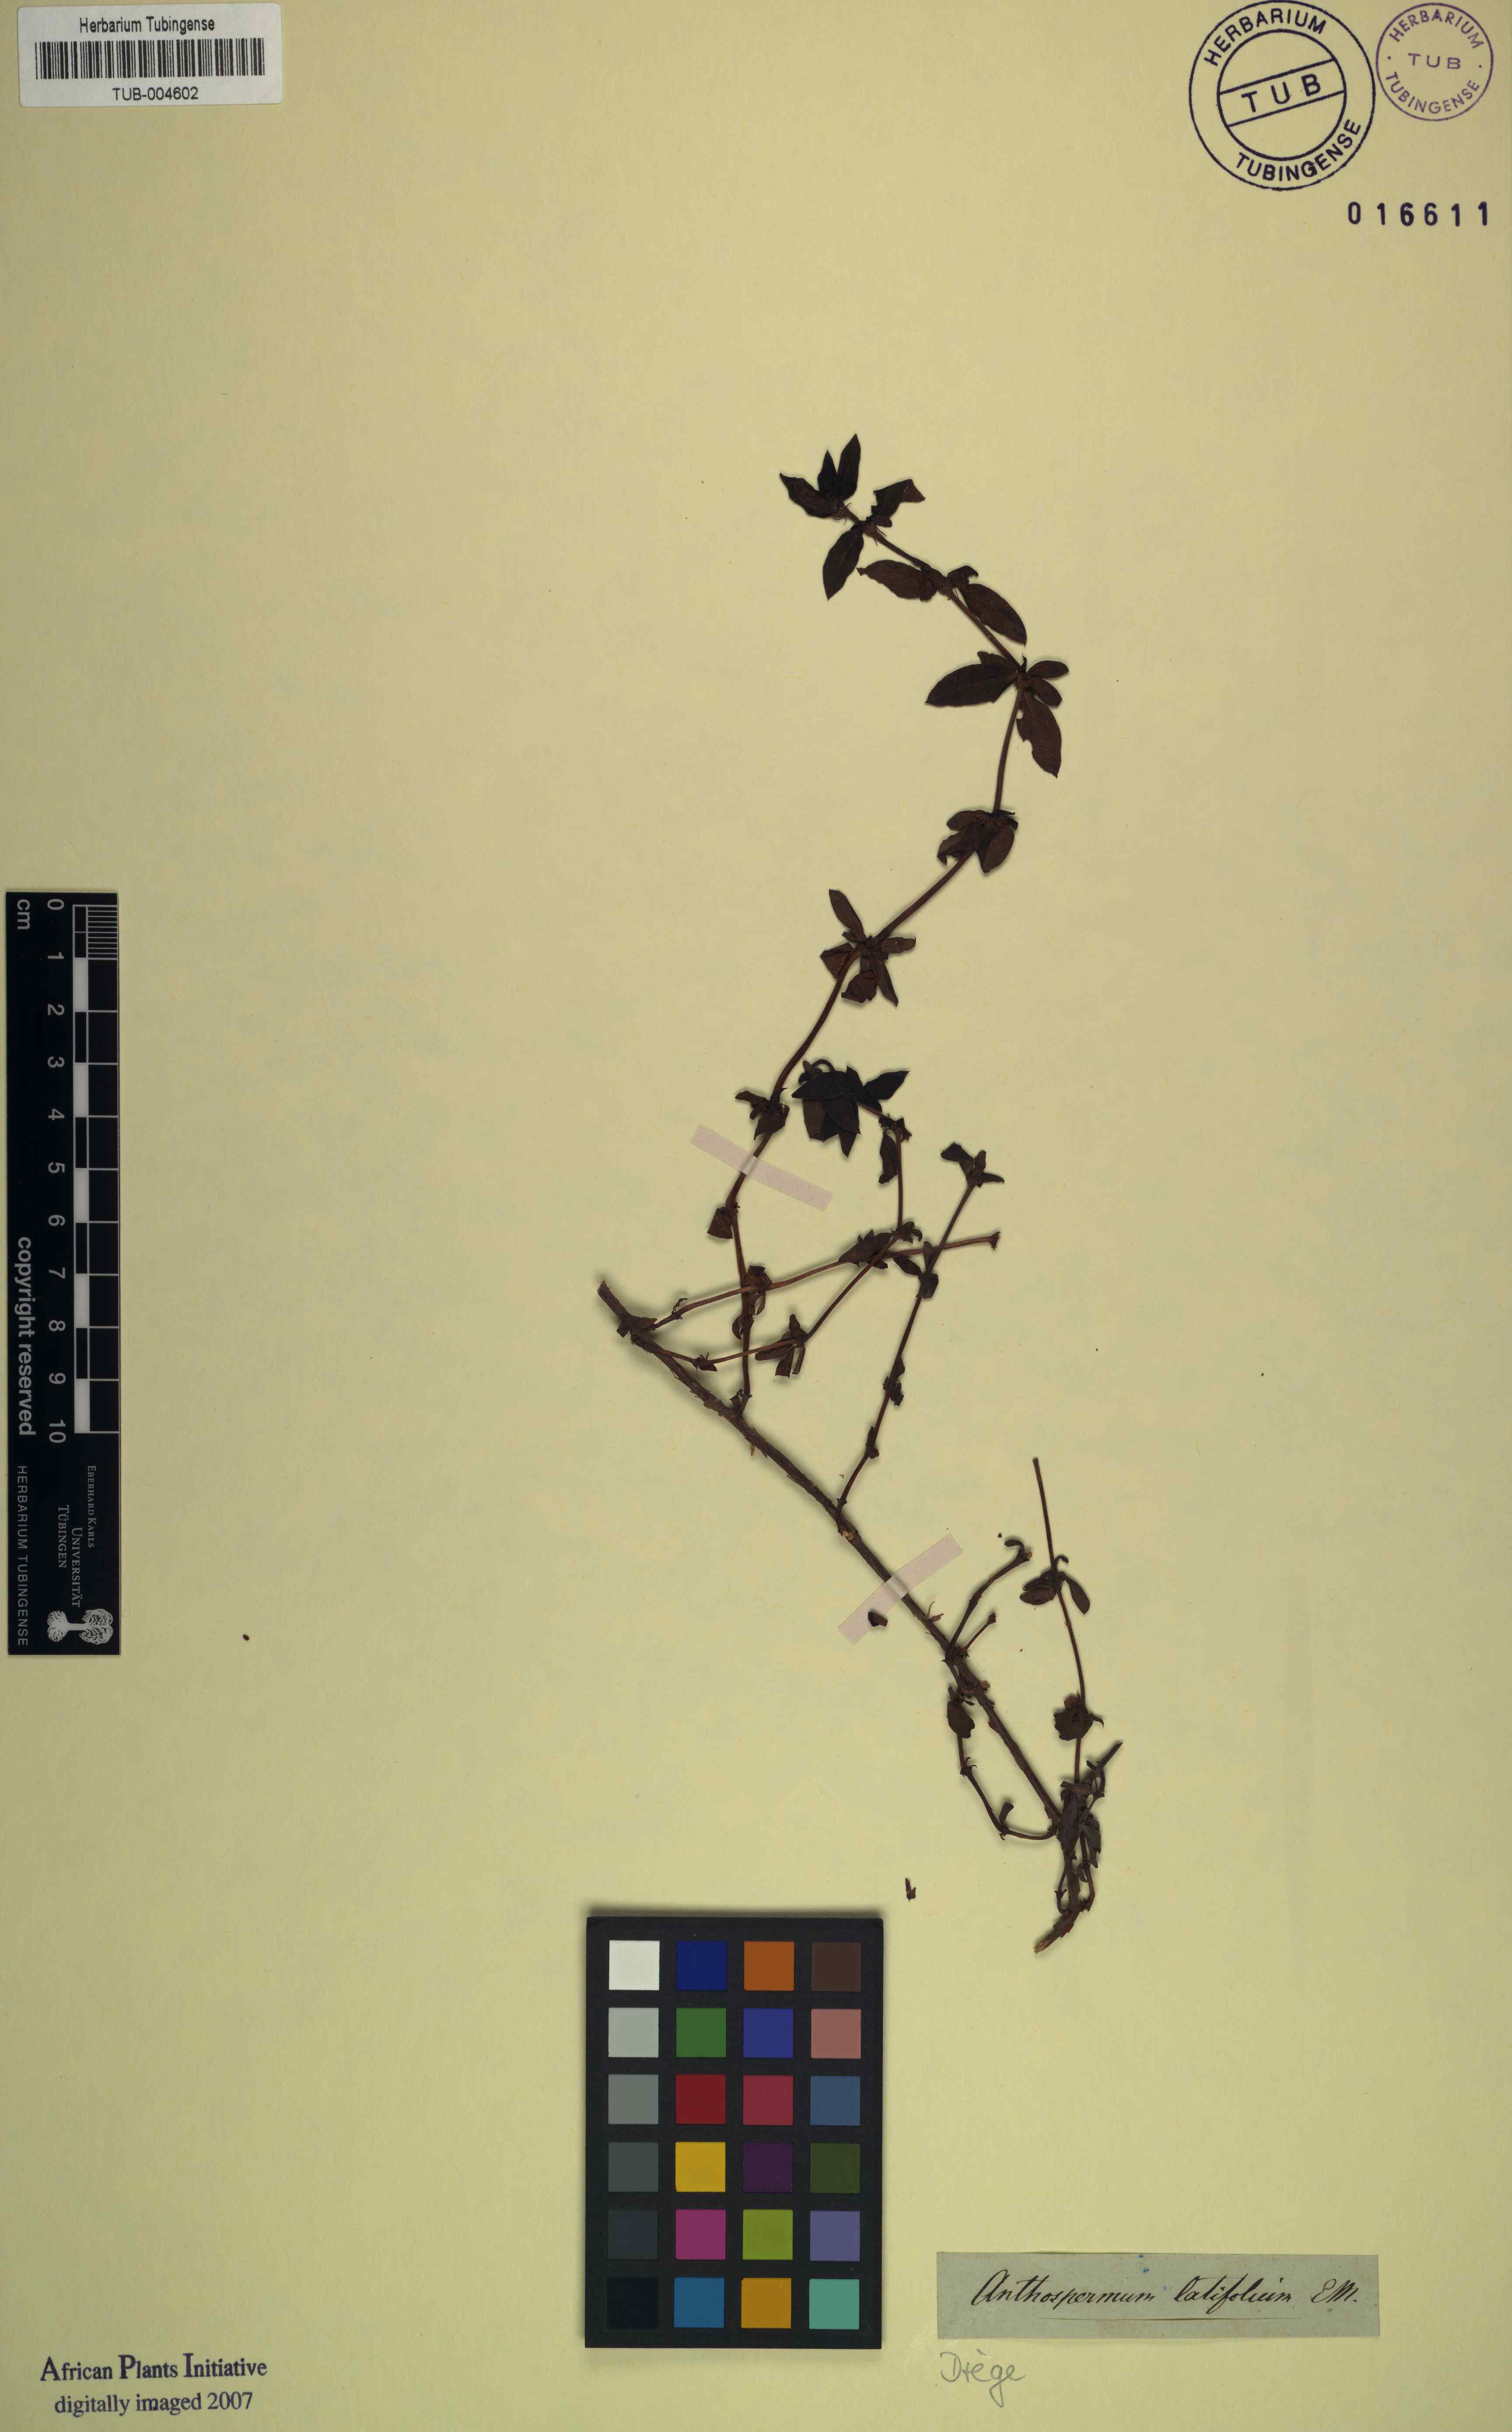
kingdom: Plantae
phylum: Tracheophyta
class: Magnoliopsida
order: Gentianales
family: Rubiaceae
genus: Anthospermum
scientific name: Anthospermum herbaceum
